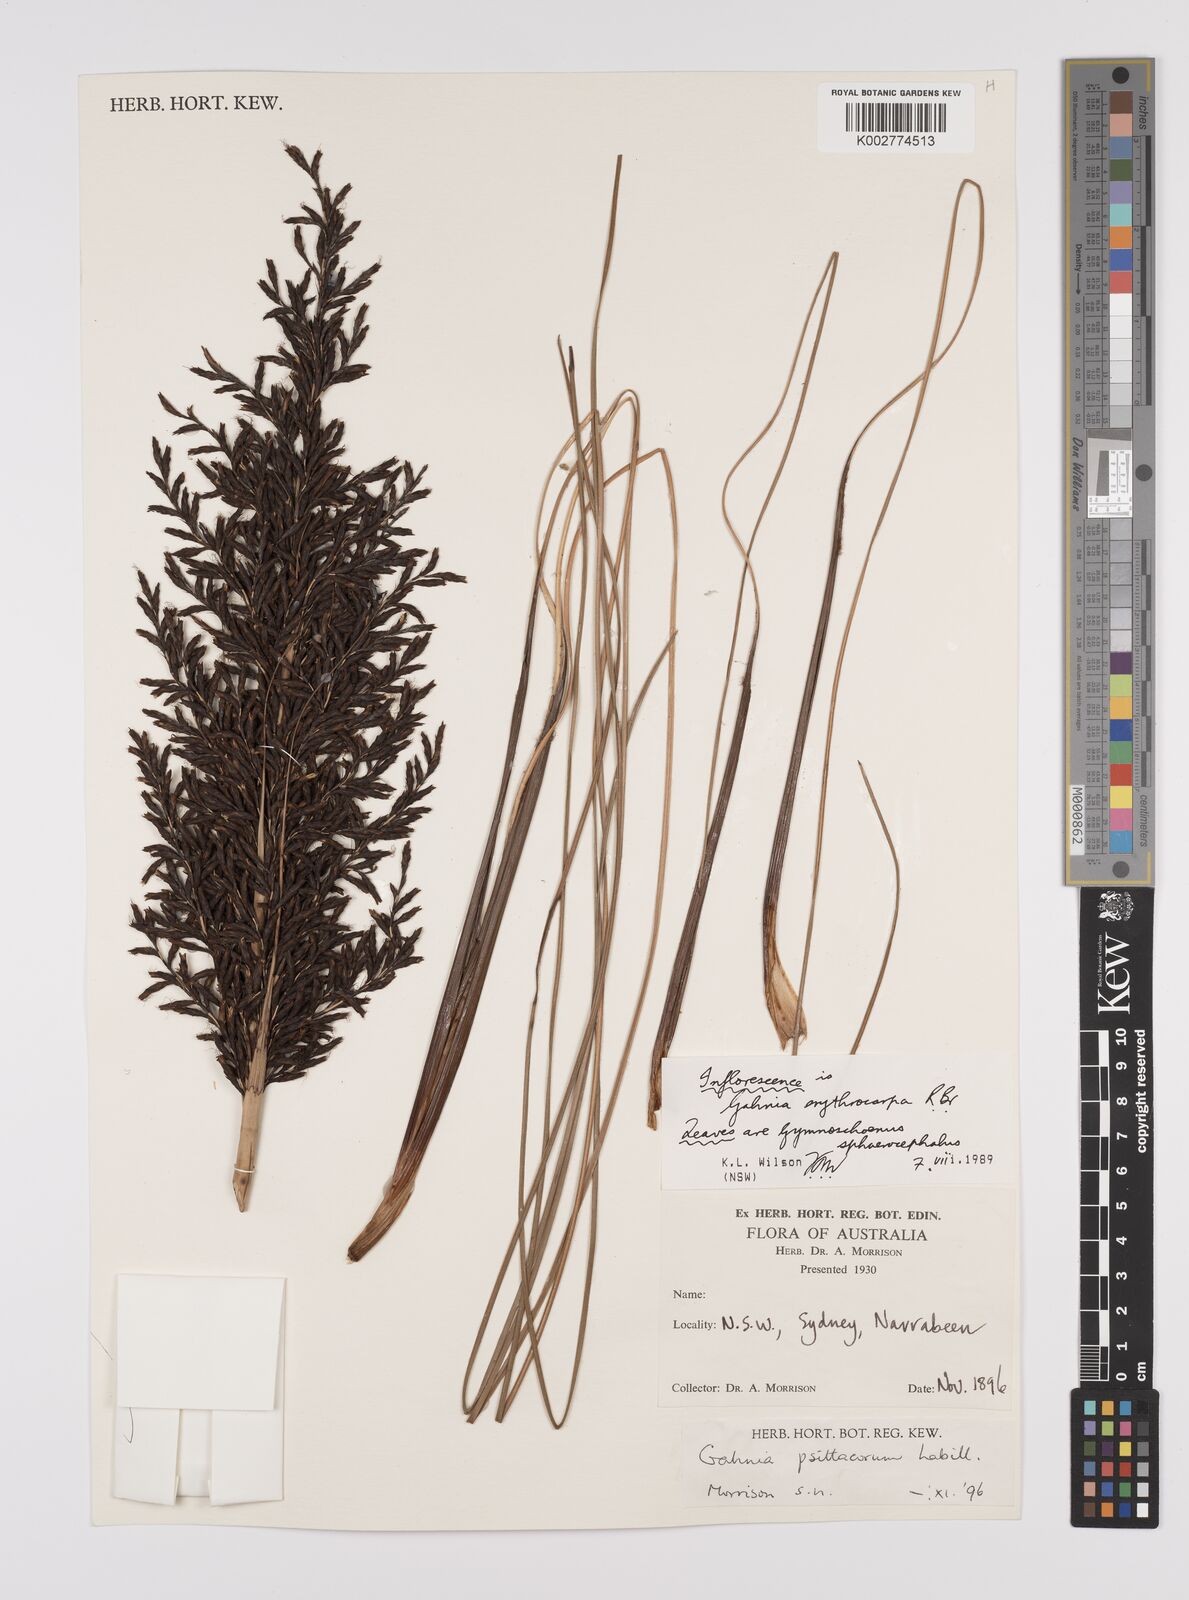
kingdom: Plantae
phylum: Tracheophyta
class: Liliopsida
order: Poales
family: Cyperaceae
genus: Gahnia
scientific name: Gahnia erythrocarpa
